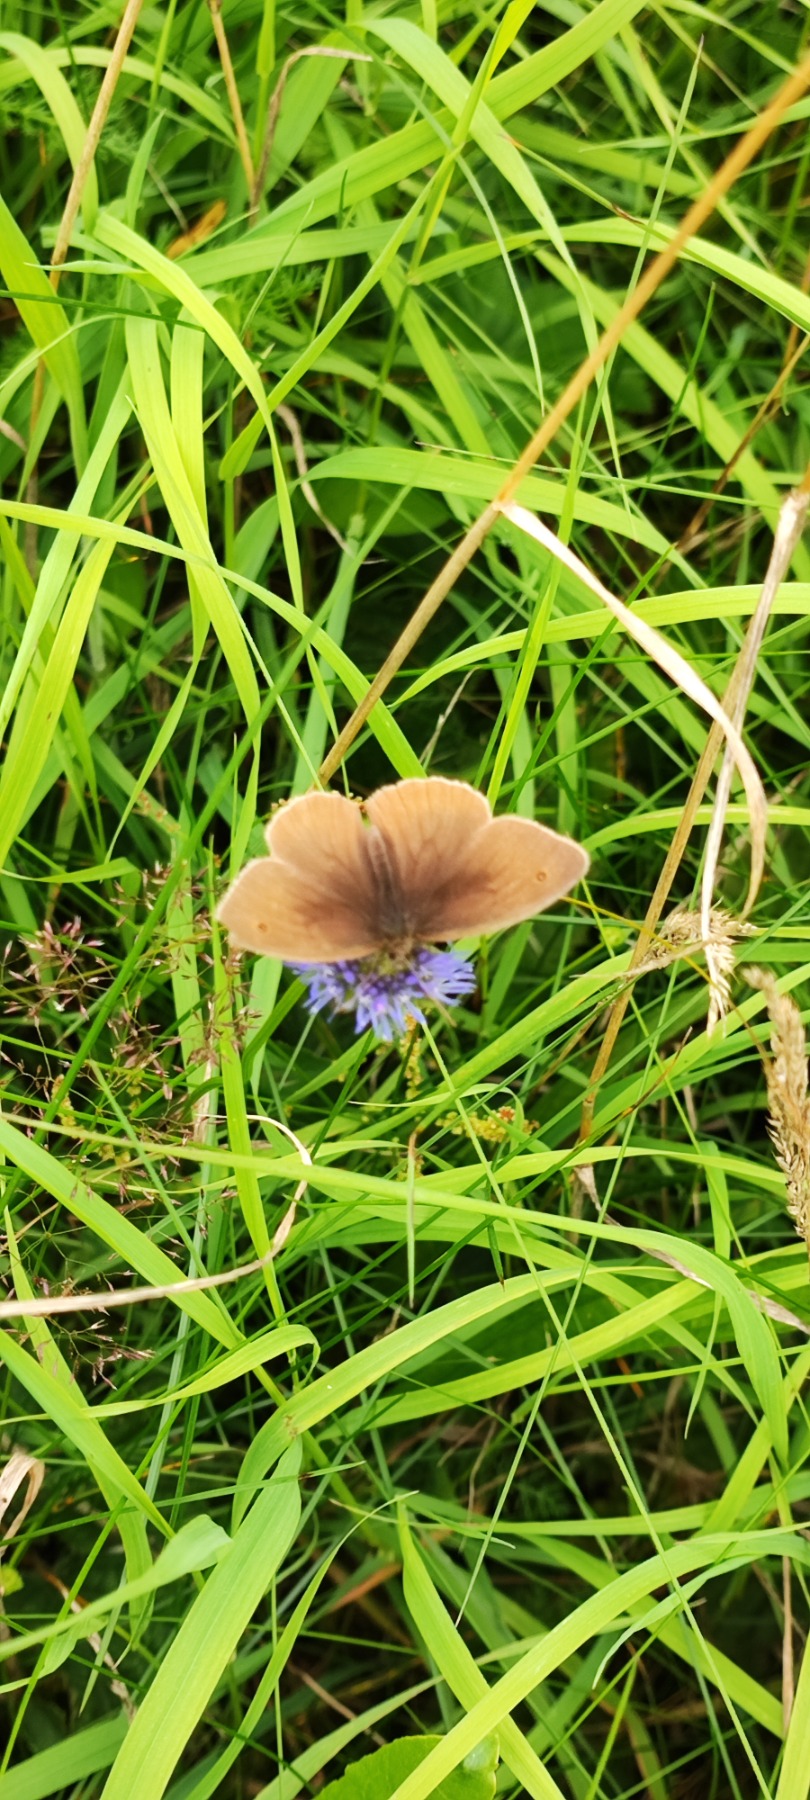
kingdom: Animalia
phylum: Arthropoda
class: Insecta
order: Lepidoptera
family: Nymphalidae
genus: Maniola
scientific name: Maniola jurtina
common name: Græsrandøje
